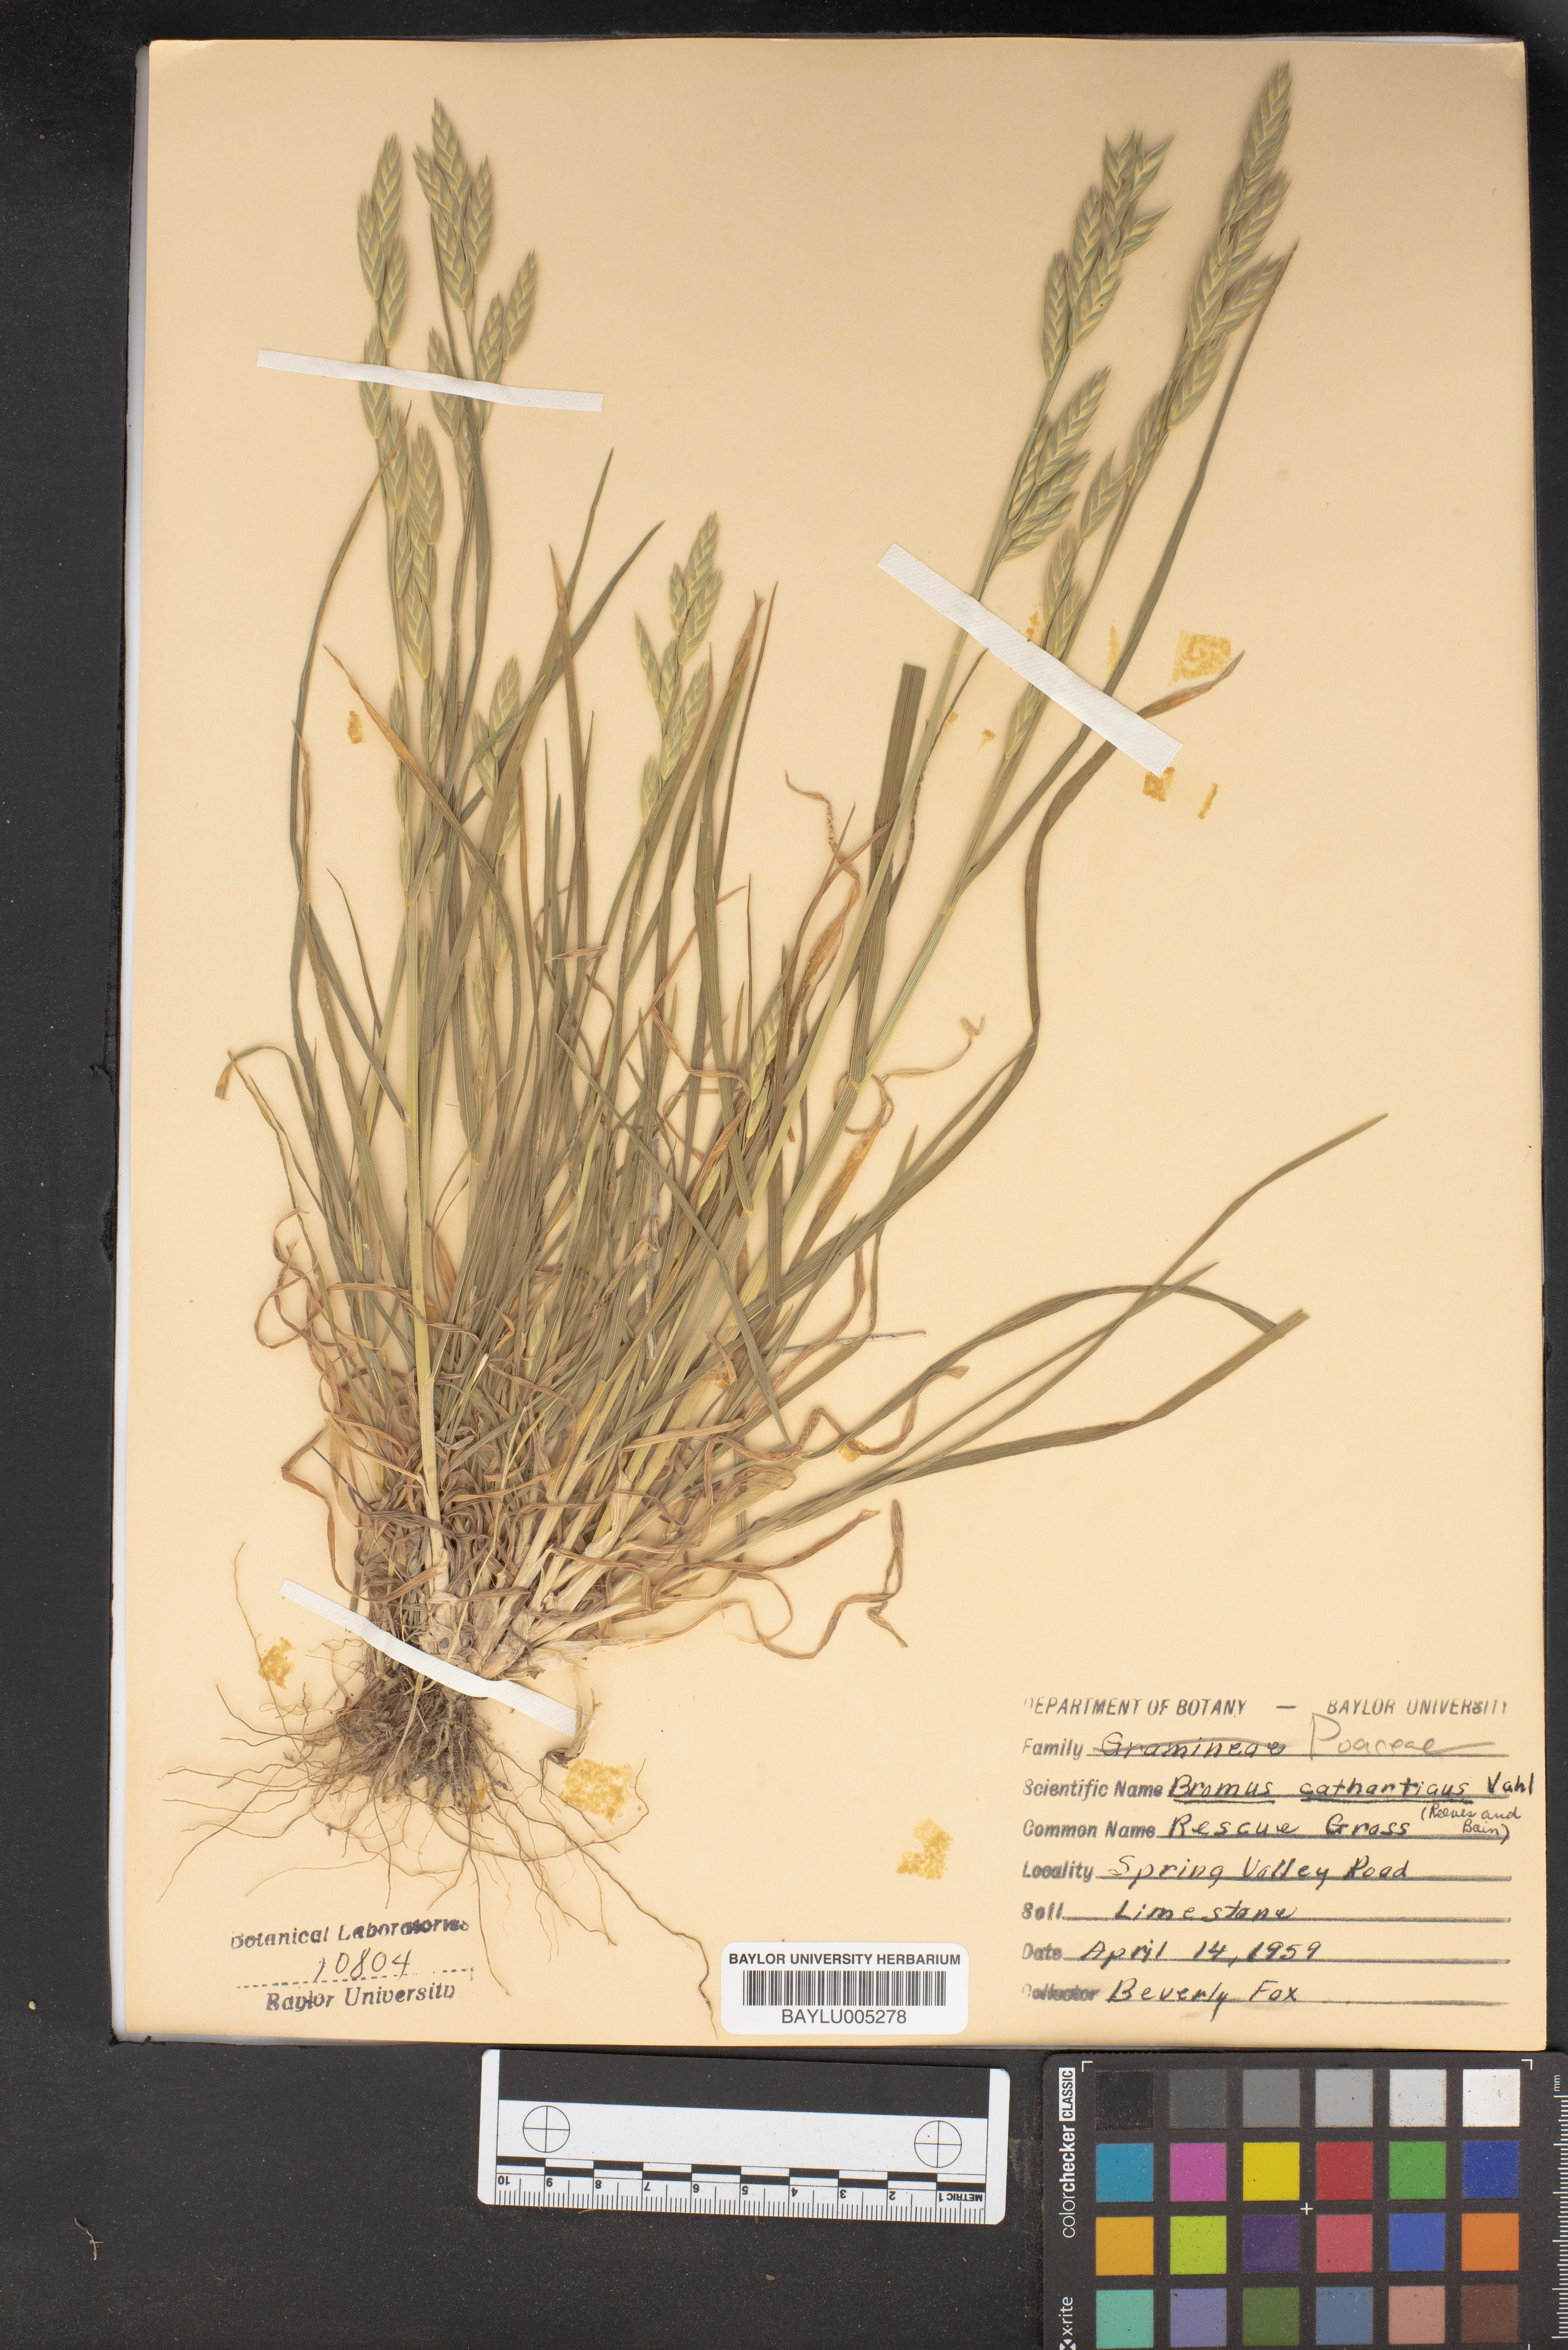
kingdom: Plantae
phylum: Tracheophyta
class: Liliopsida
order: Poales
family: Poaceae
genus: Bromus
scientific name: Bromus catharticus
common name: Rescuegrass
